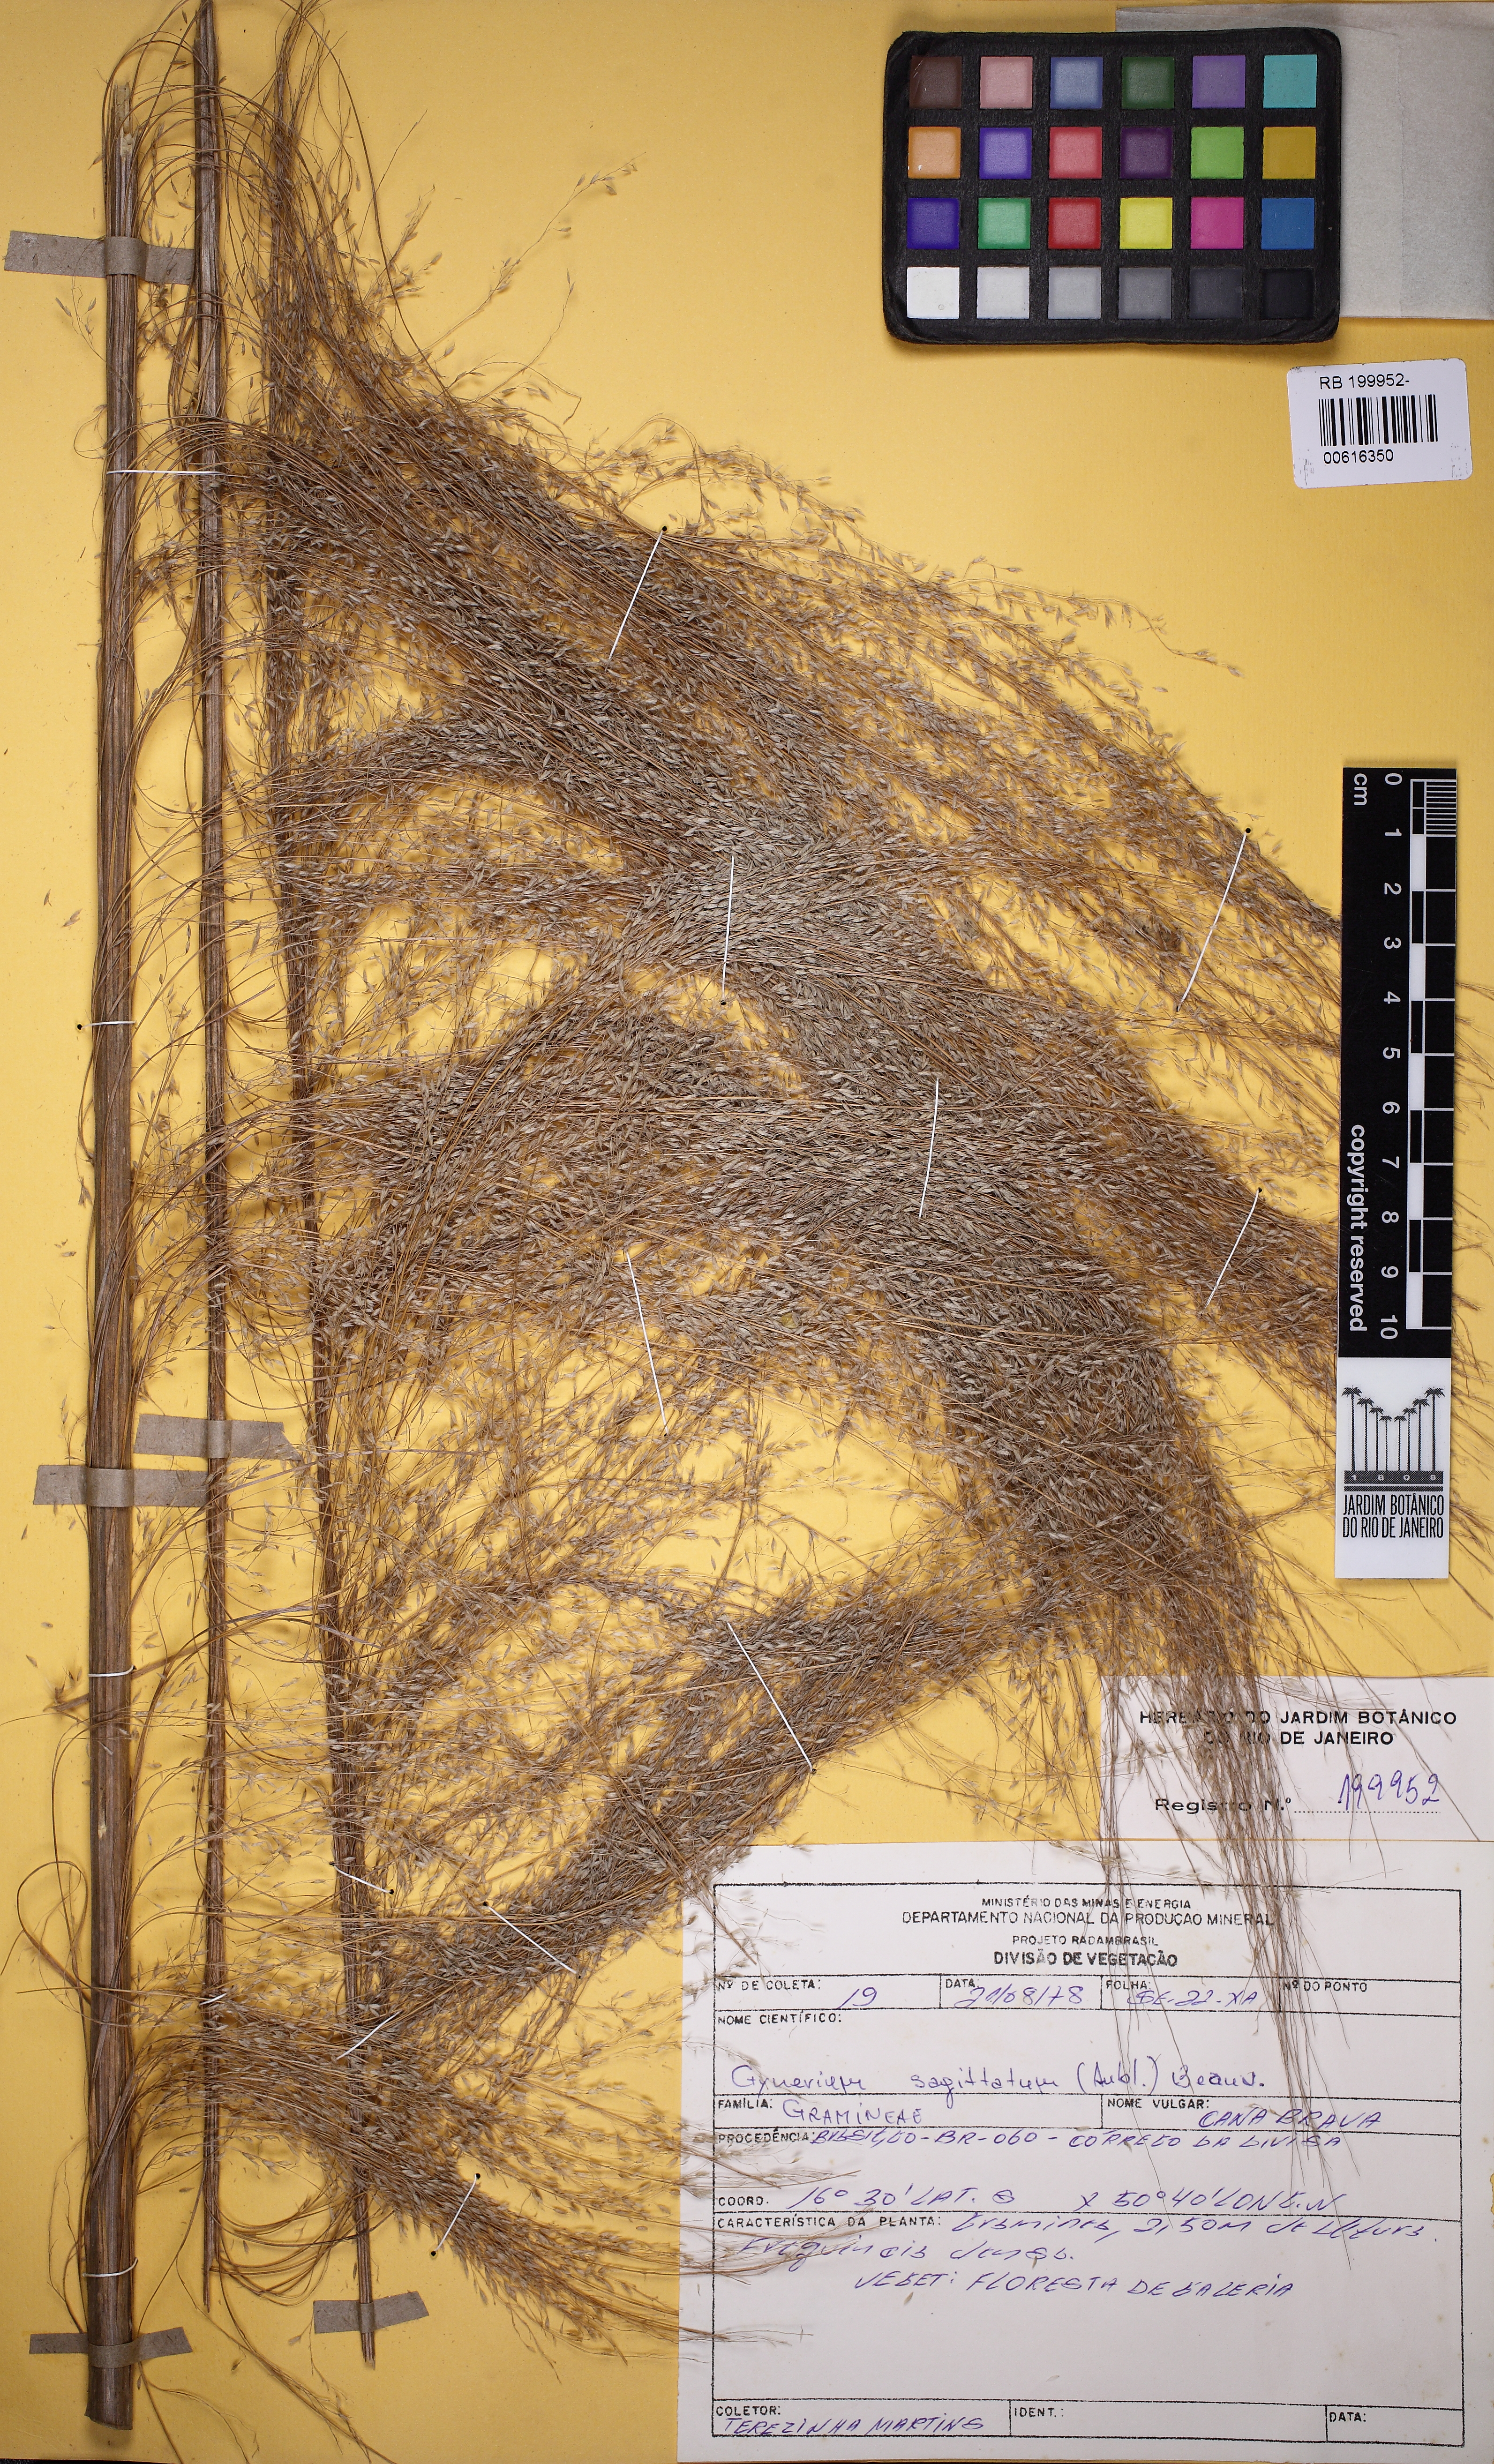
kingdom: Plantae
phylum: Tracheophyta
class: Liliopsida
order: Poales
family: Poaceae
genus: Gynerium
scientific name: Gynerium sagittatum
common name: Wild cane
